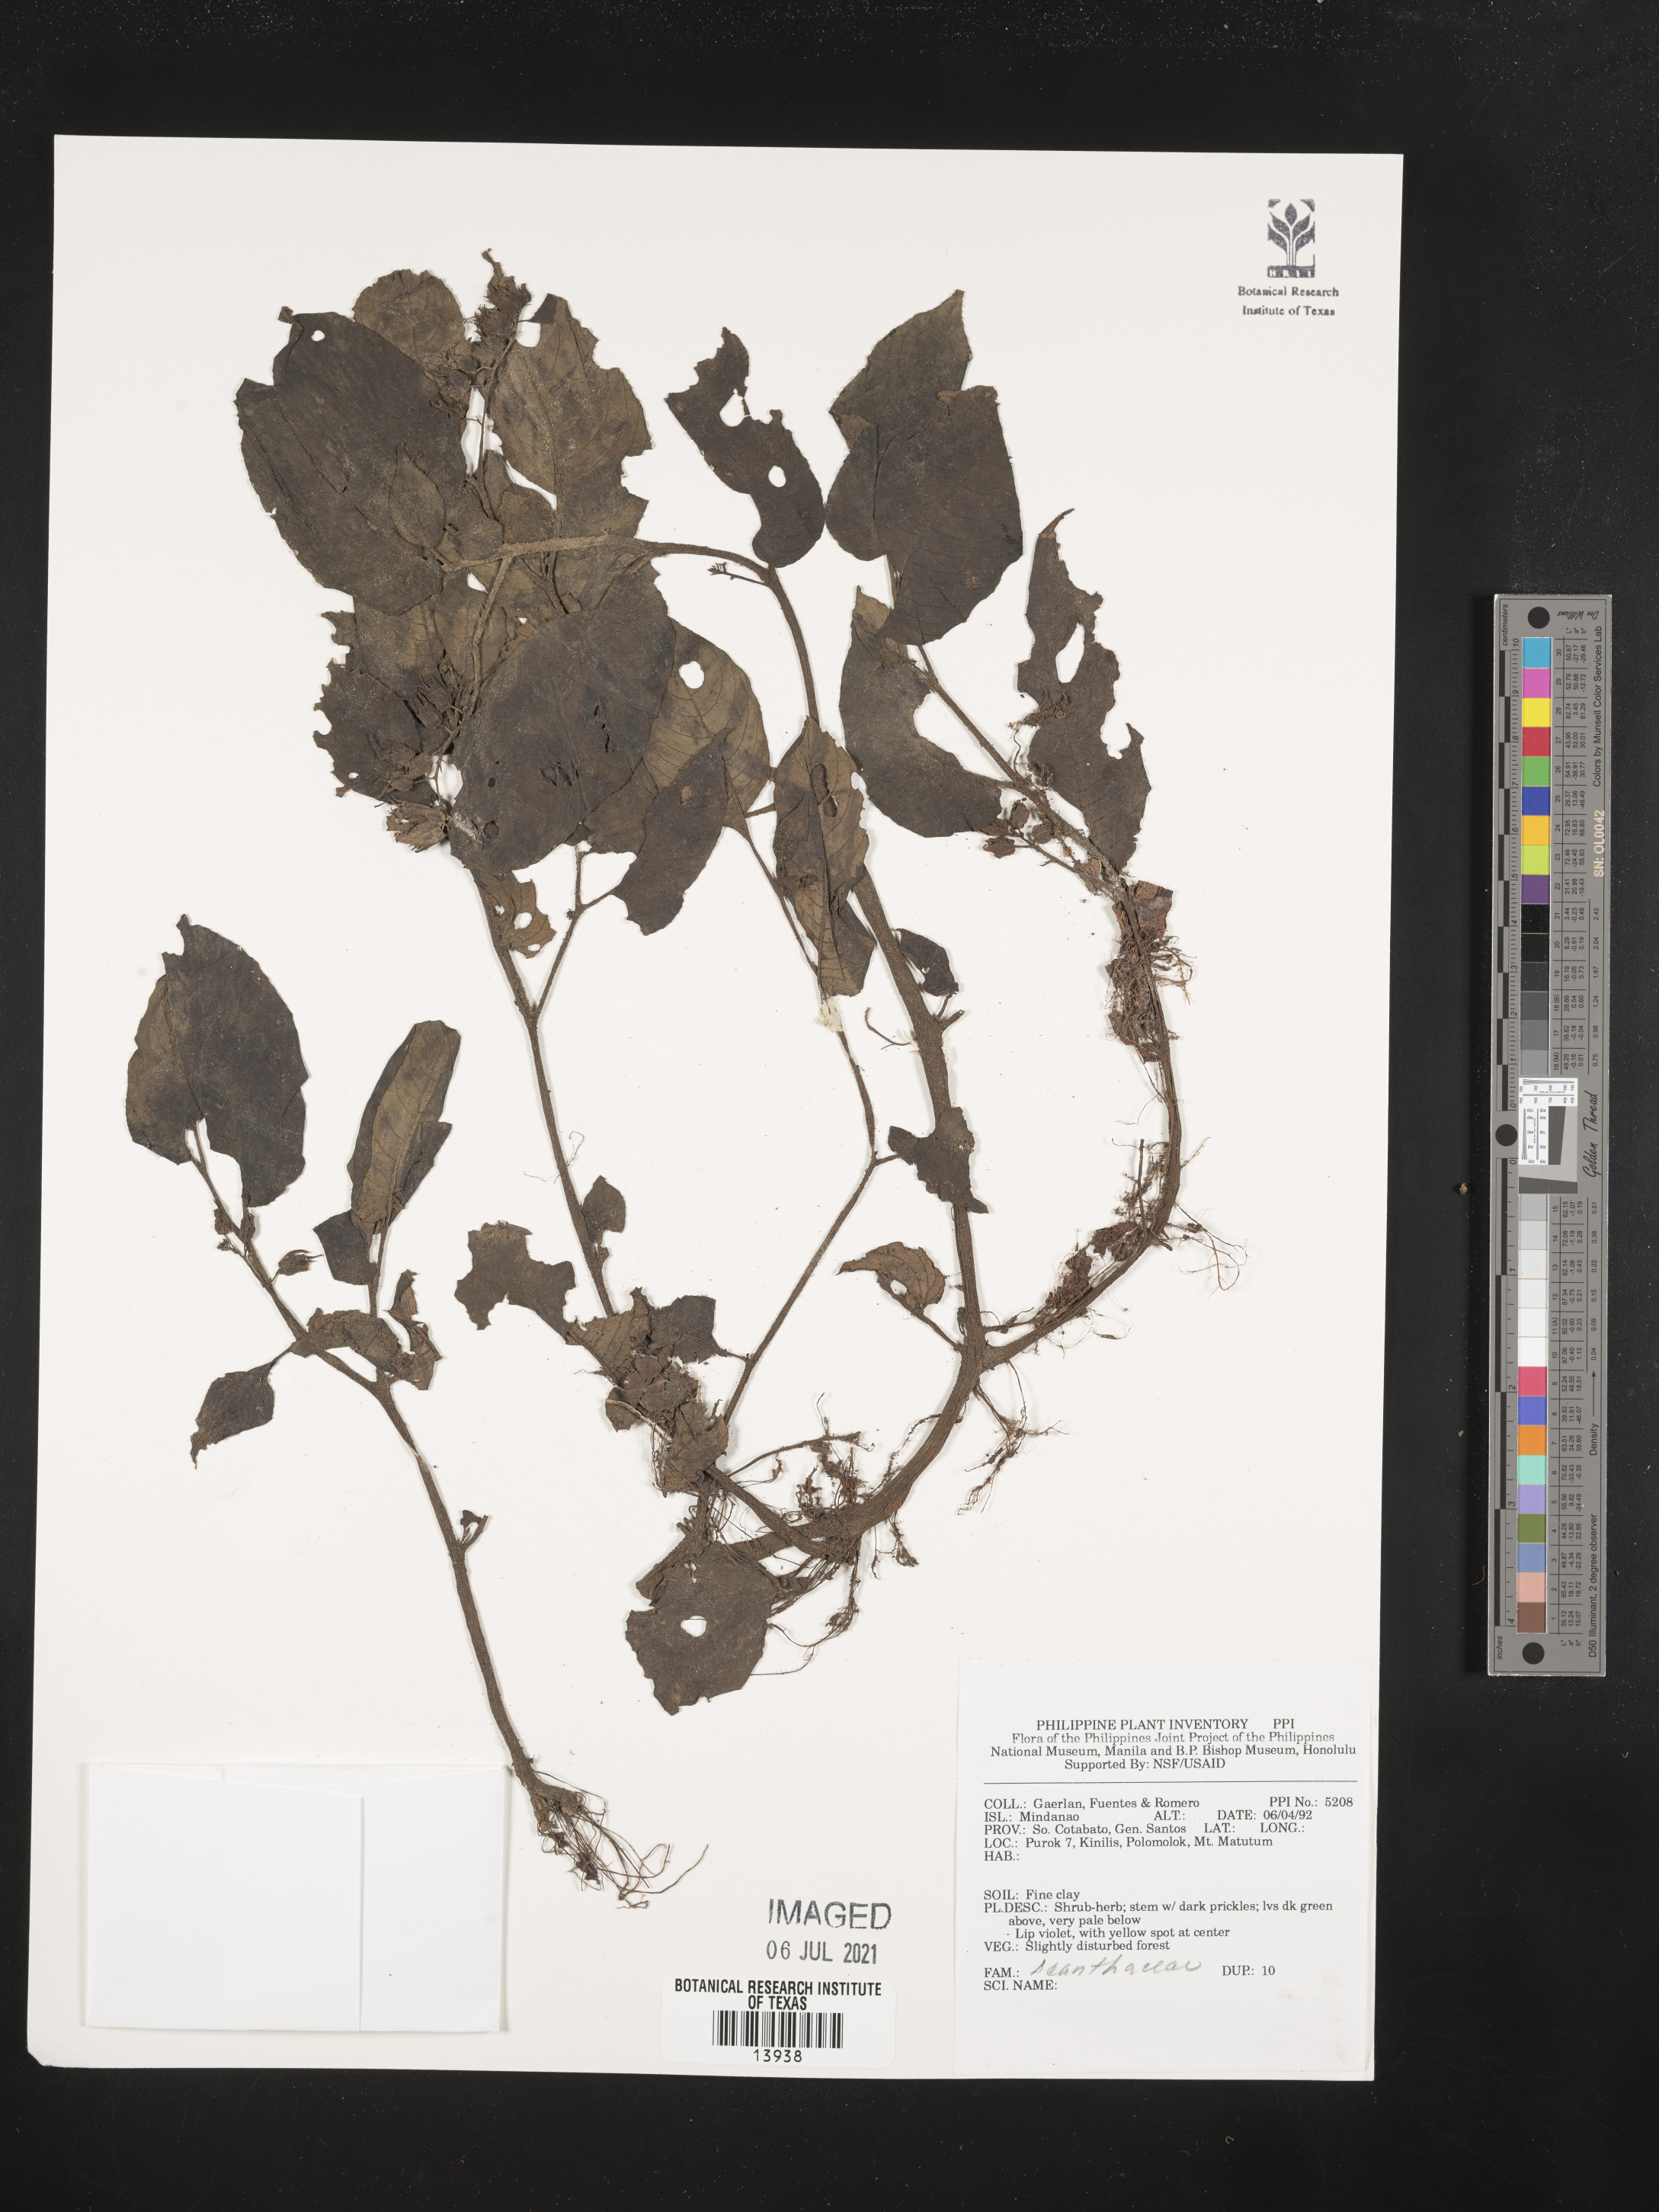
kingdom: Plantae
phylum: Tracheophyta
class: Magnoliopsida
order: Lamiales
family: Acanthaceae
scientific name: Acanthaceae
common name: Acanthaceae
